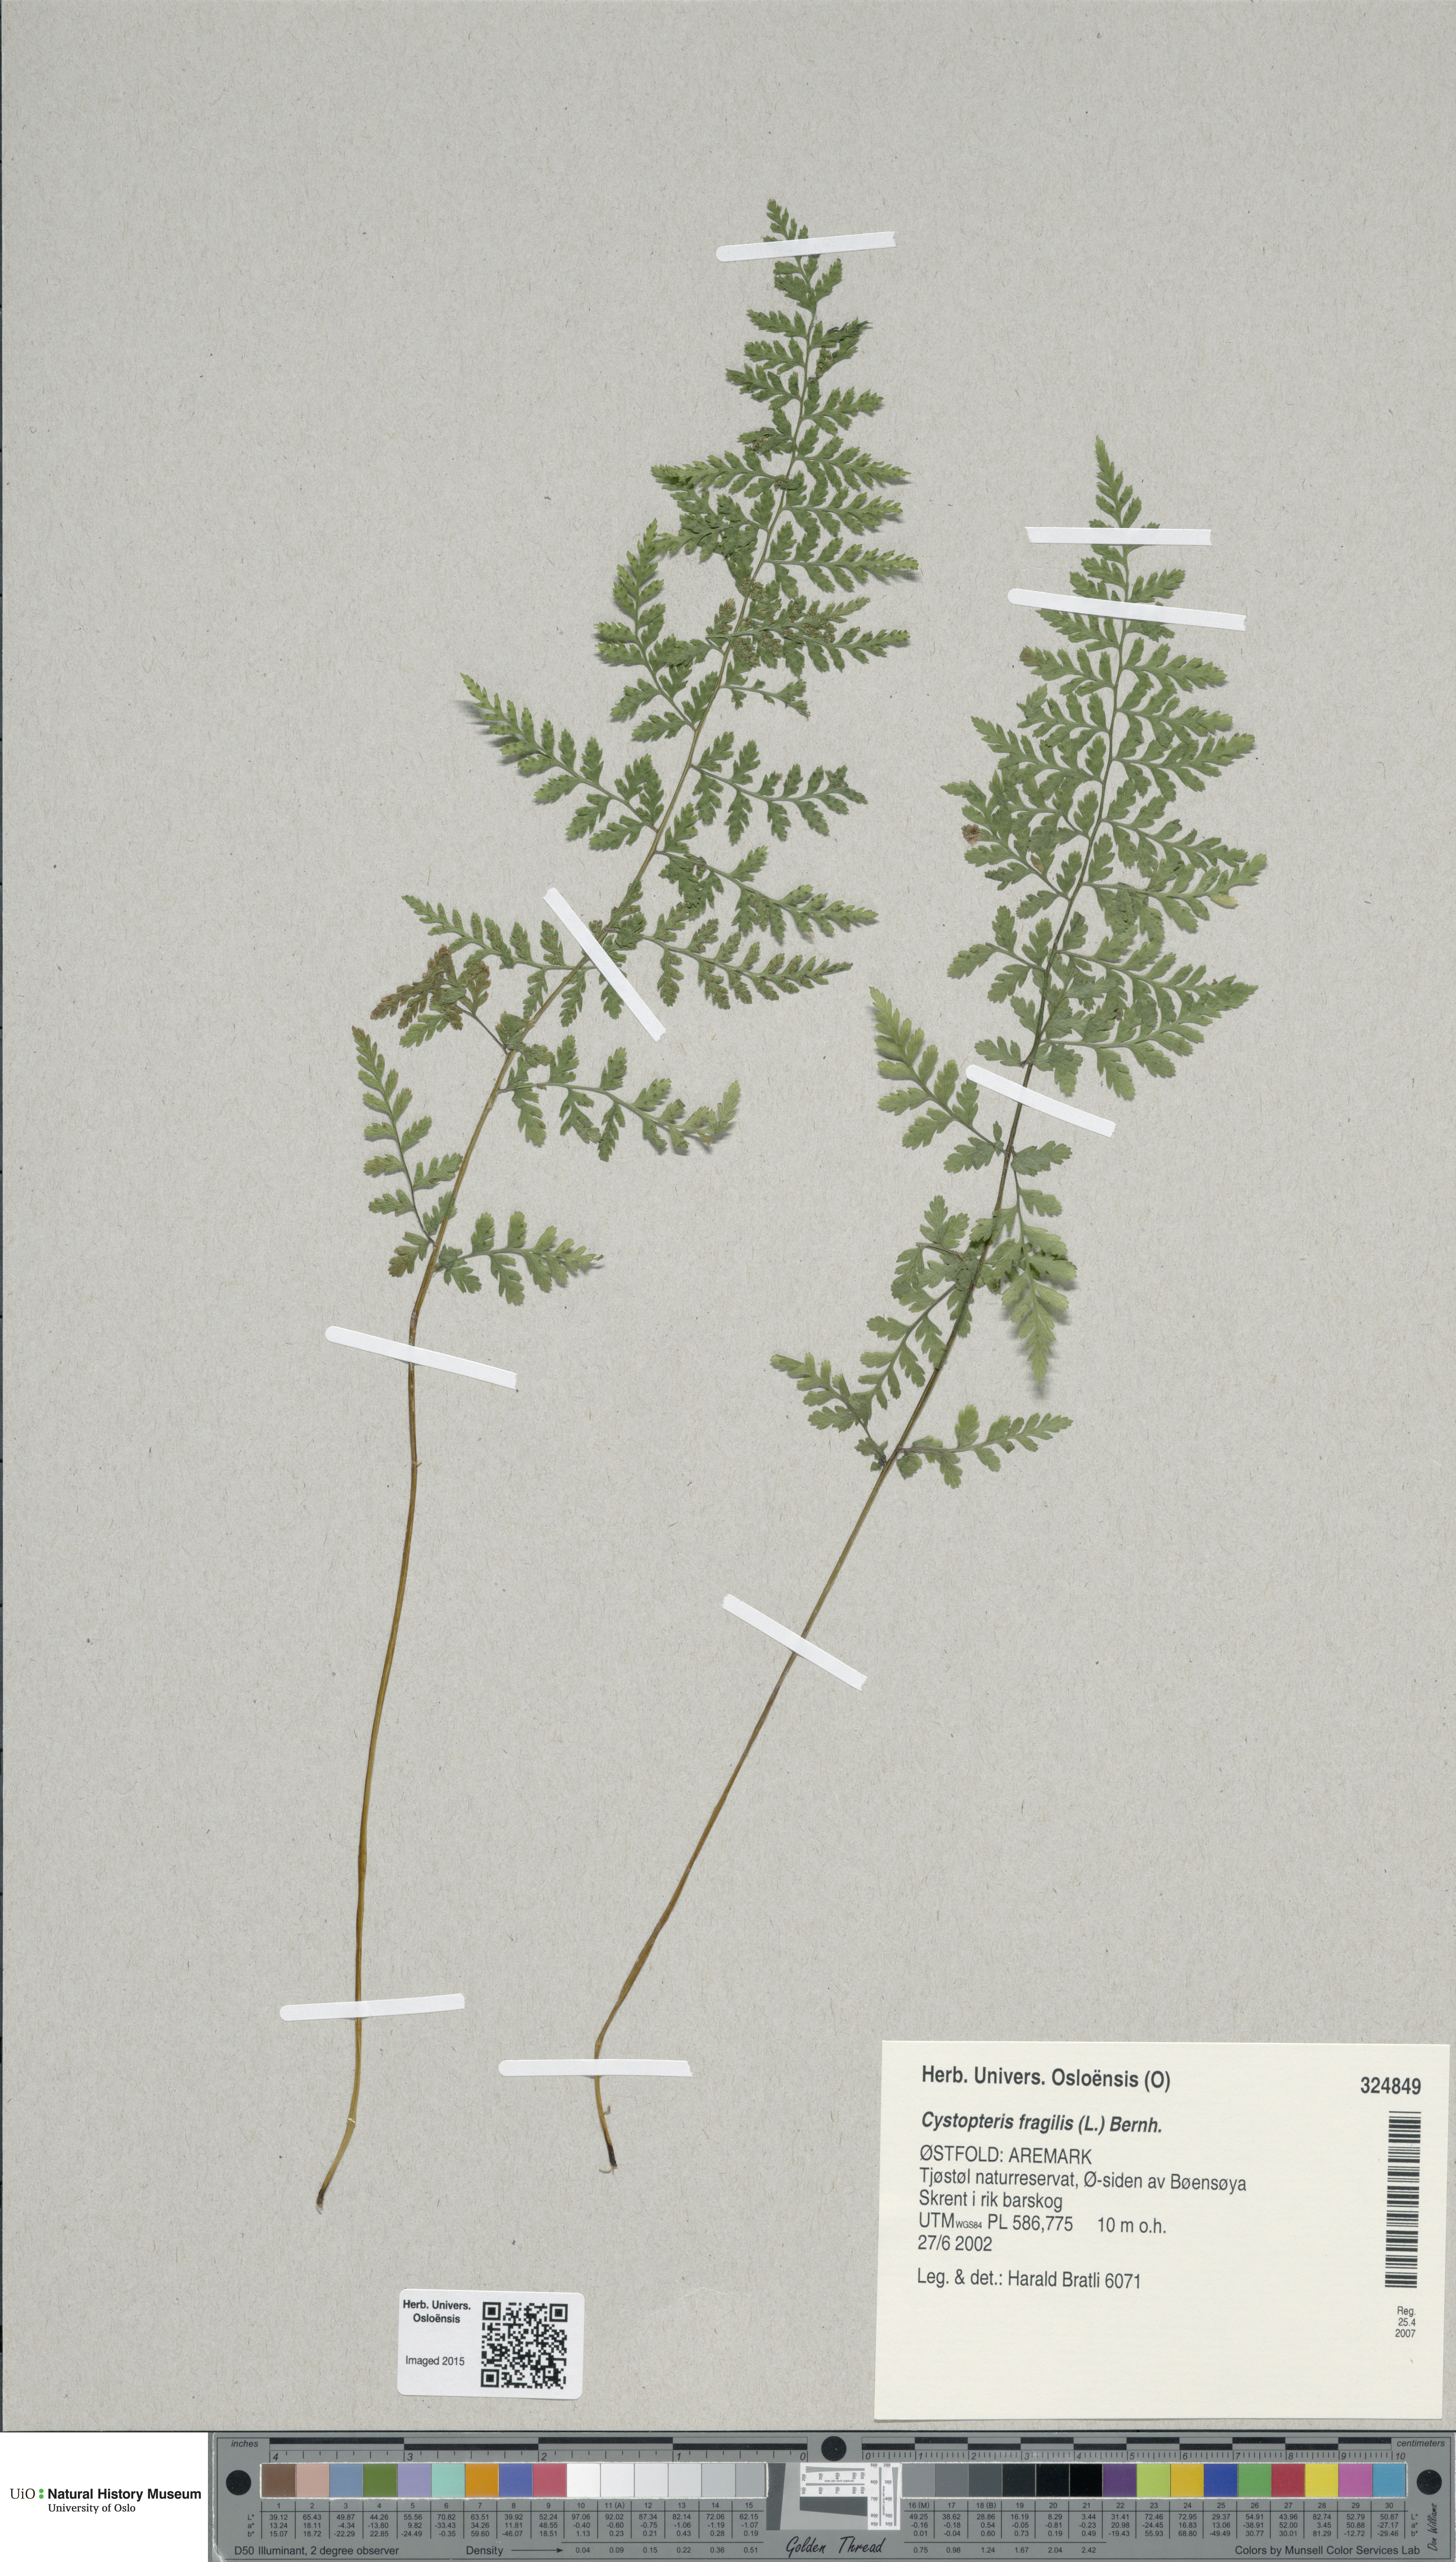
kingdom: Plantae
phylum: Tracheophyta
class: Polypodiopsida
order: Polypodiales
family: Cystopteridaceae
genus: Cystopteris
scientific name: Cystopteris fragilis
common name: Brittle bladder fern
